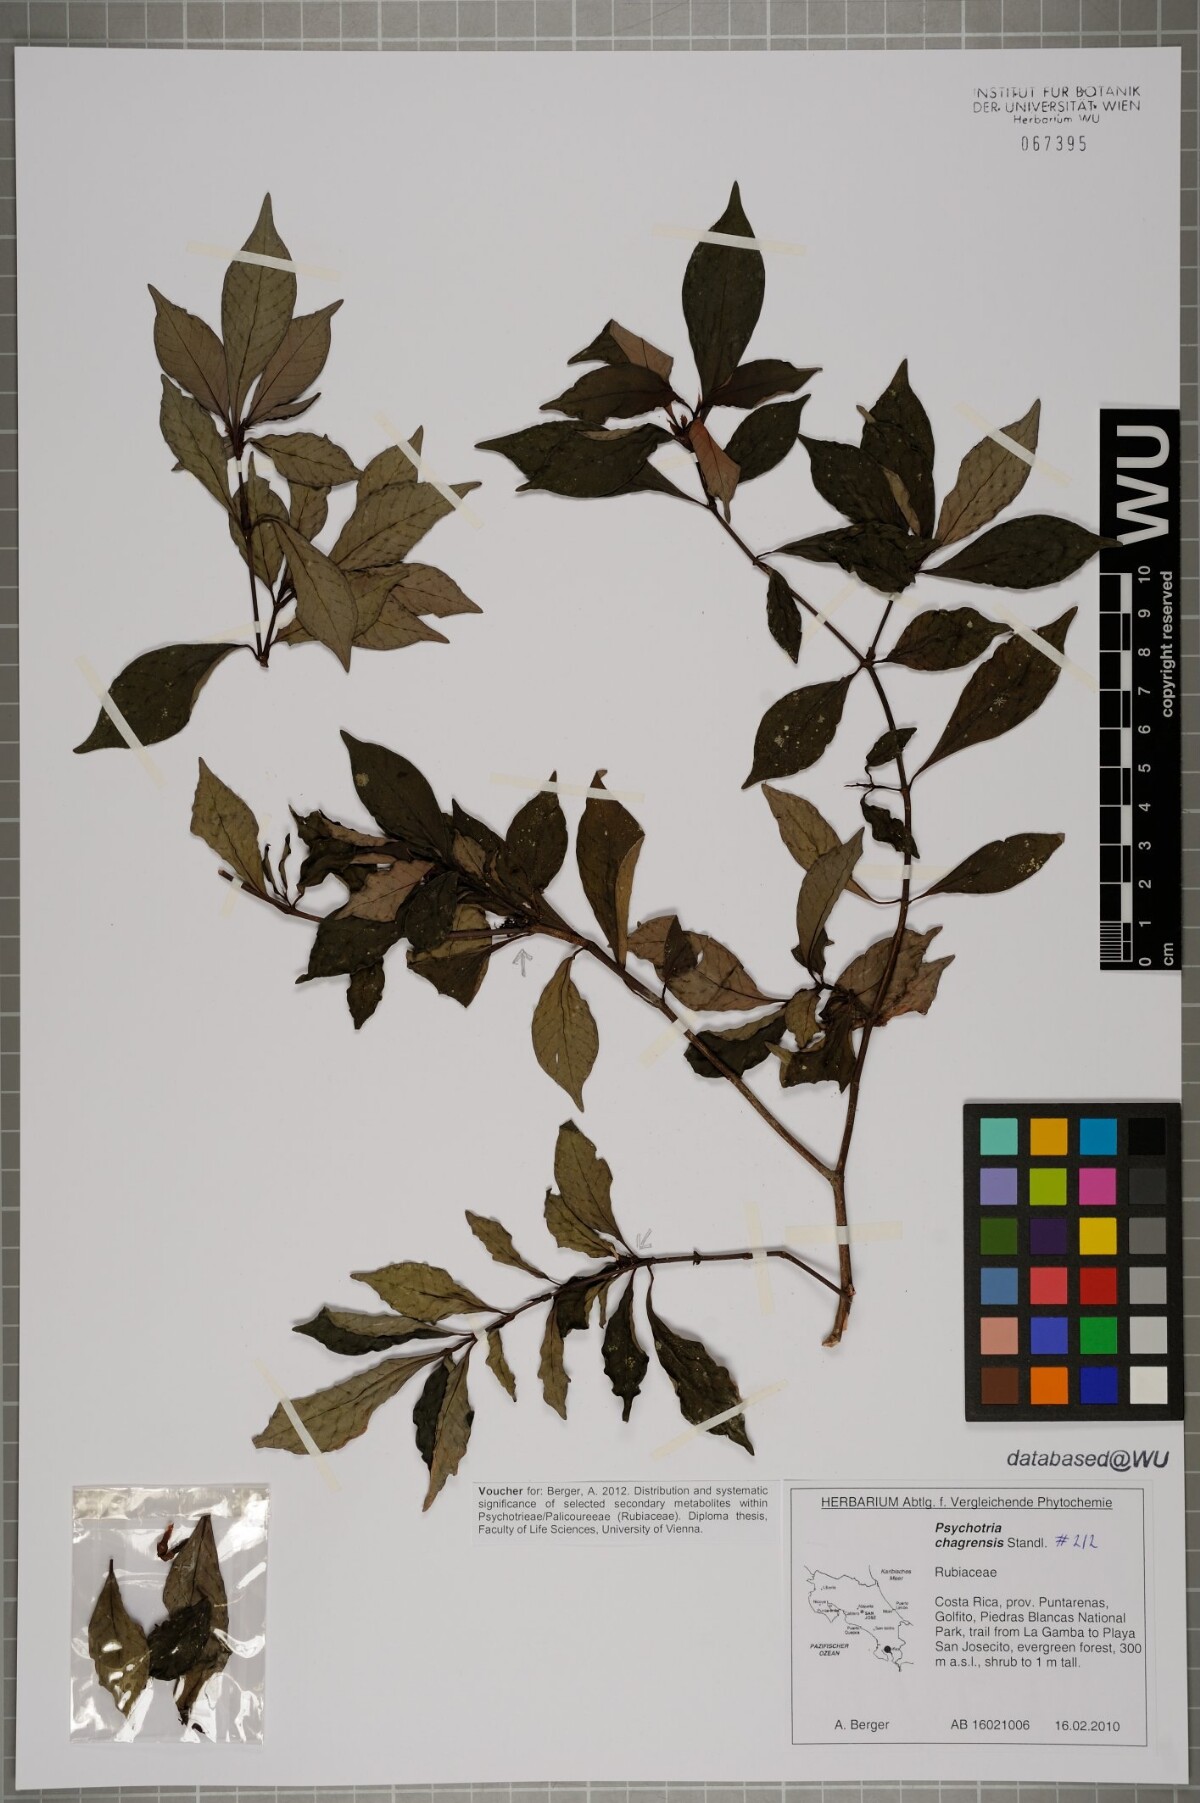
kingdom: Plantae
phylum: Tracheophyta
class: Magnoliopsida
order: Gentianales
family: Rubiaceae
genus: Psychotria
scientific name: Psychotria chagrensis
